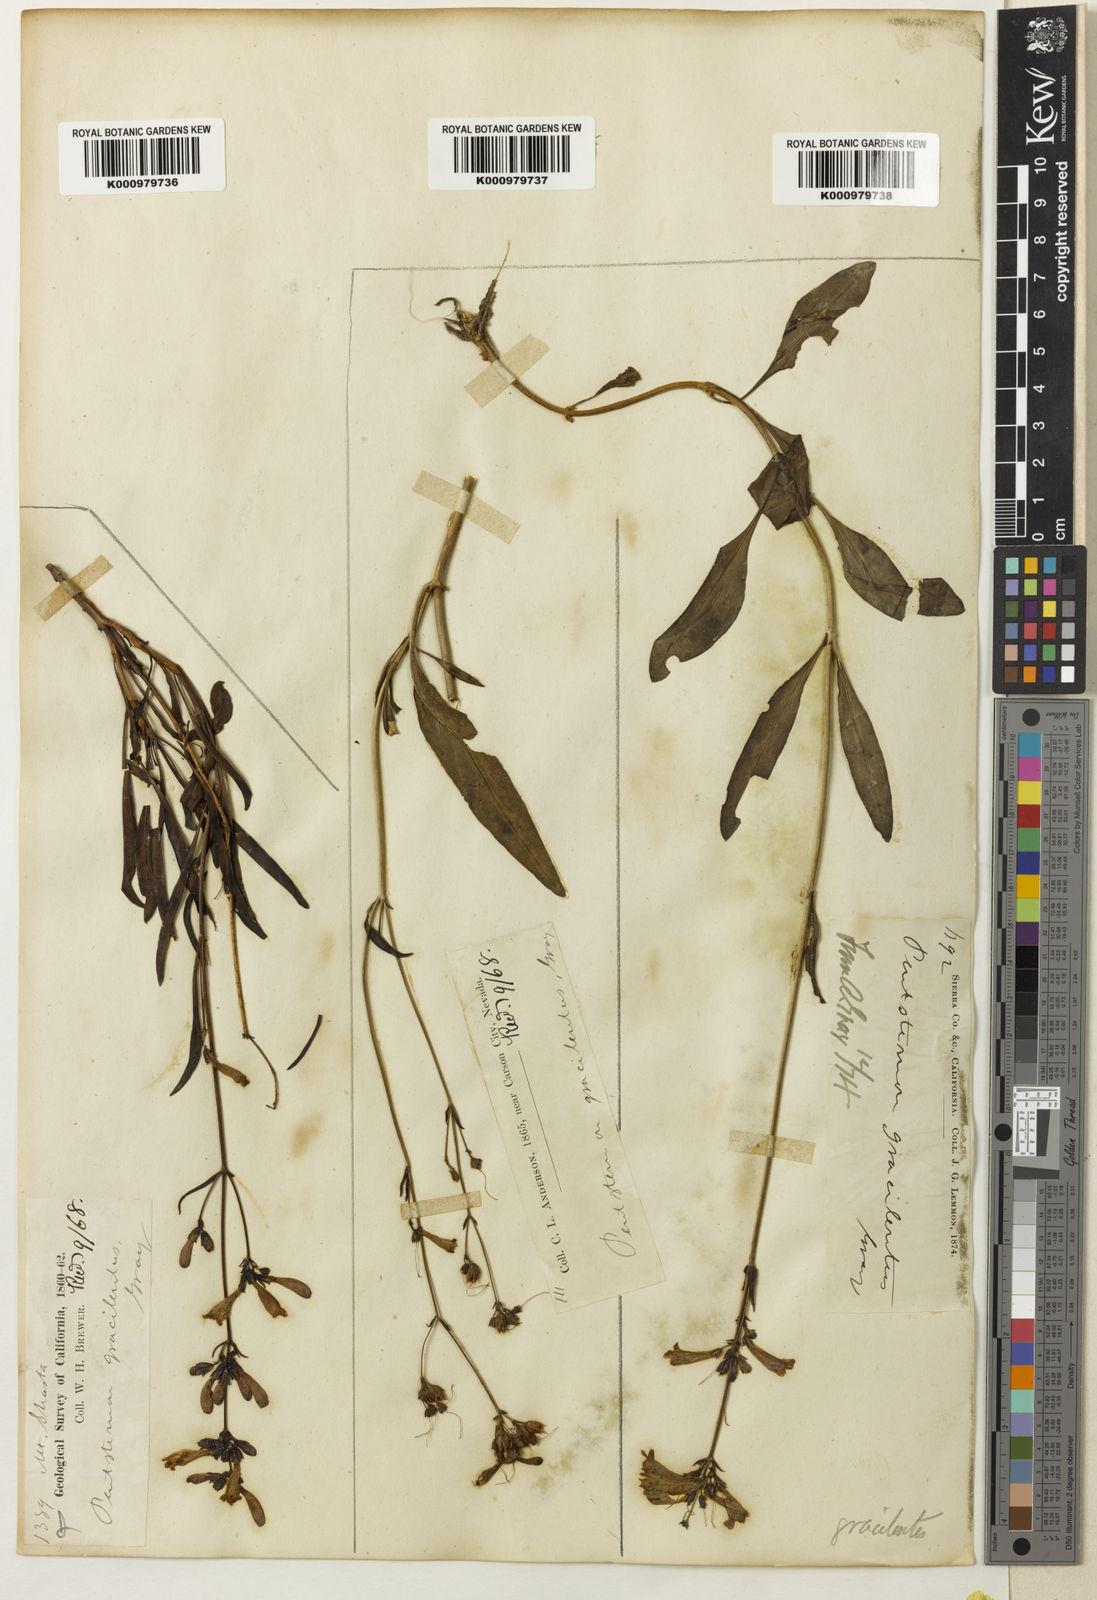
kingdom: Plantae
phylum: Tracheophyta
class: Magnoliopsida
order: Lamiales
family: Plantaginaceae
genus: Penstemon
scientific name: Penstemon gracilentus
